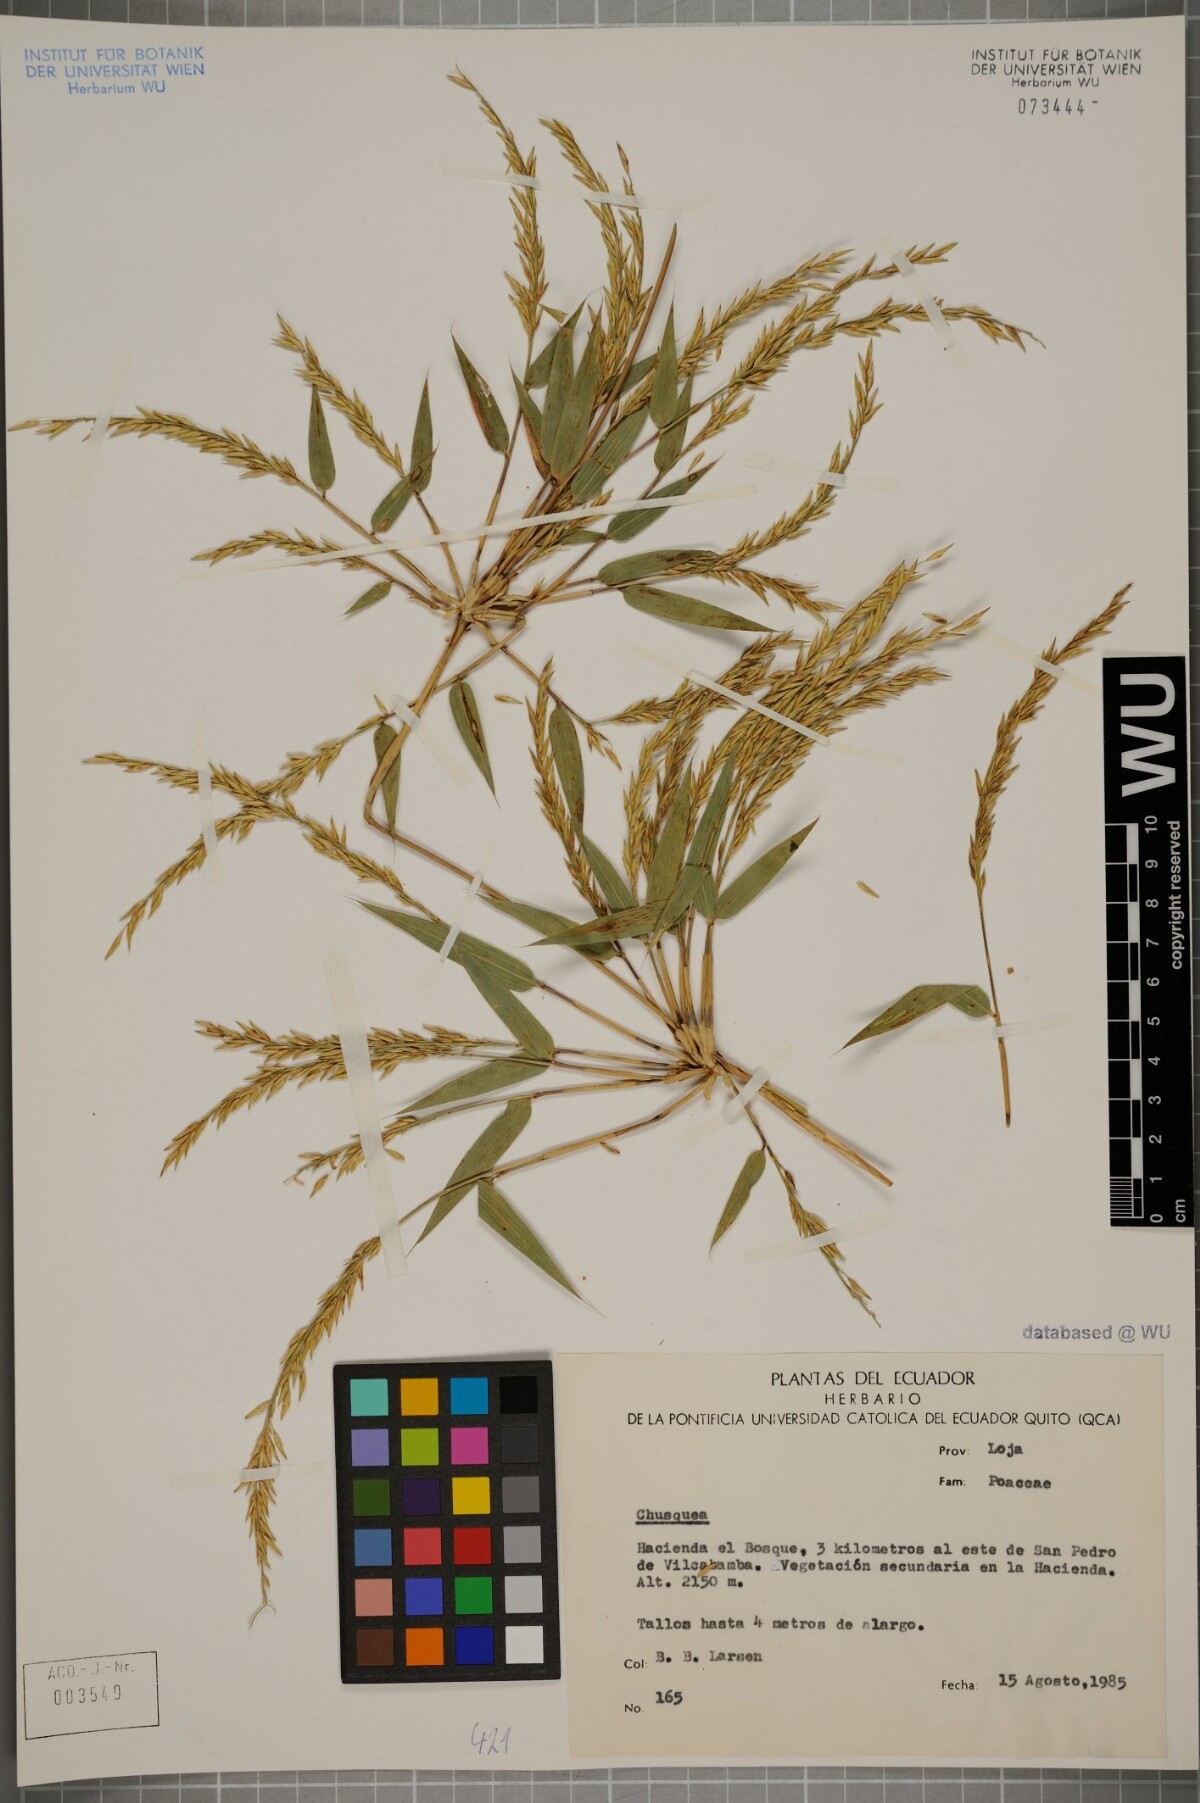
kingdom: Plantae
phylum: Tracheophyta
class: Liliopsida
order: Poales
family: Poaceae
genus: Chusquea
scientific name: Chusquea
